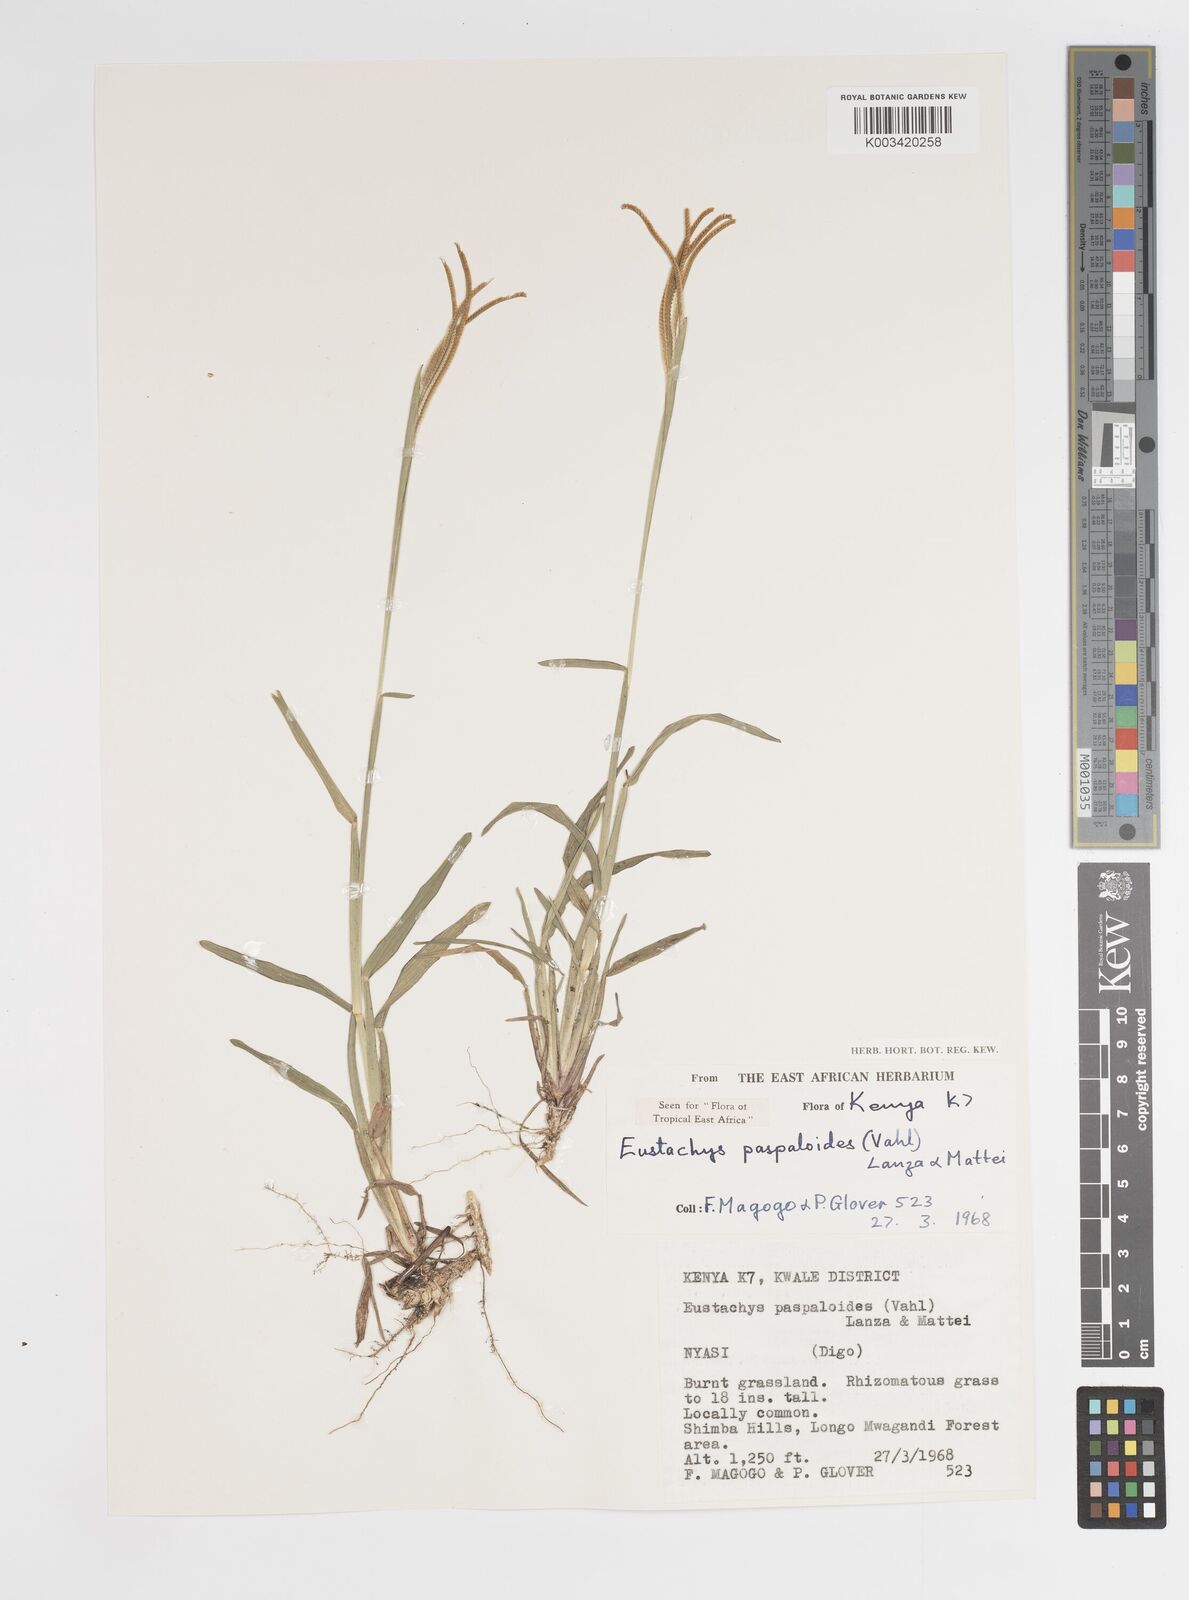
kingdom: Plantae
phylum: Tracheophyta
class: Liliopsida
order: Poales
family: Poaceae
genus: Eustachys
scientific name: Eustachys paspaloides
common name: Caribbean fingergrass
